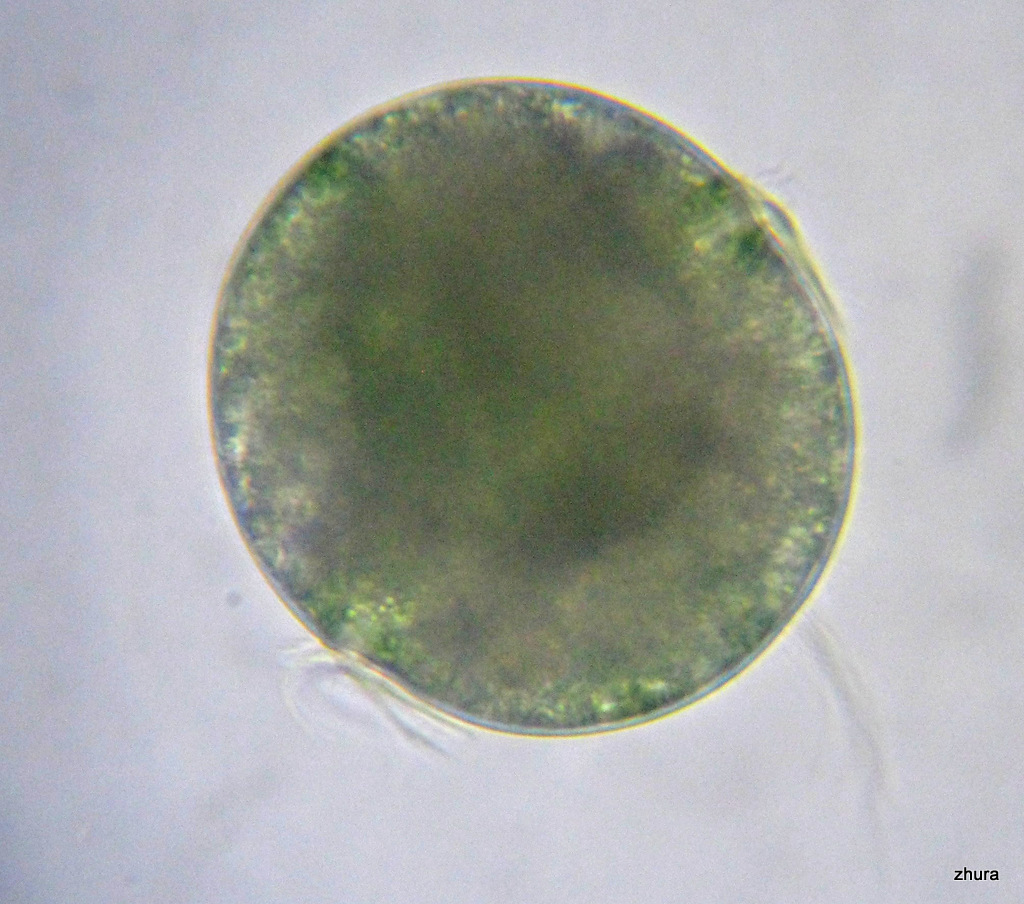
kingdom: Animalia
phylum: Annelida
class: Polychaeta
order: Phyllodocida
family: Phyllodocidae
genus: Phyllodoce
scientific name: Phyllodoce maculata
